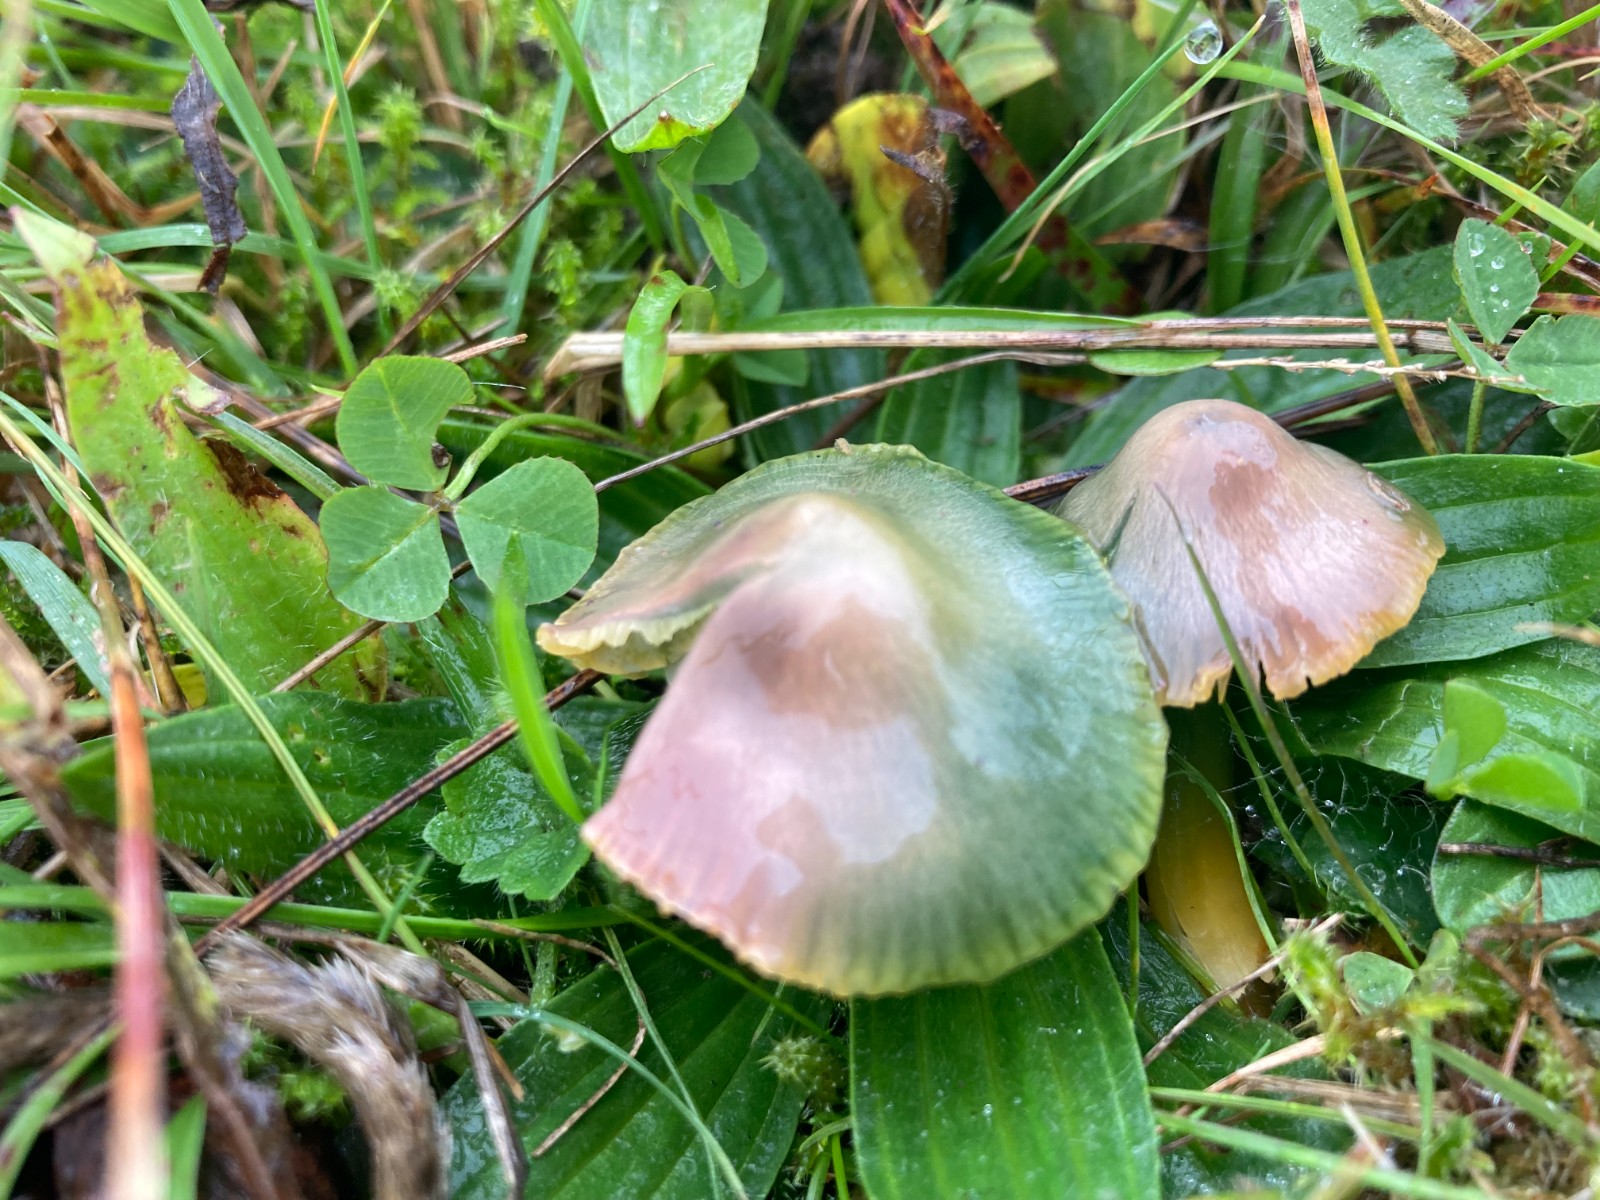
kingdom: Fungi
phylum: Basidiomycota
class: Agaricomycetes
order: Agaricales
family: Hygrophoraceae
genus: Gliophorus
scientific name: Gliophorus psittacinus
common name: papegøje-vokshat
